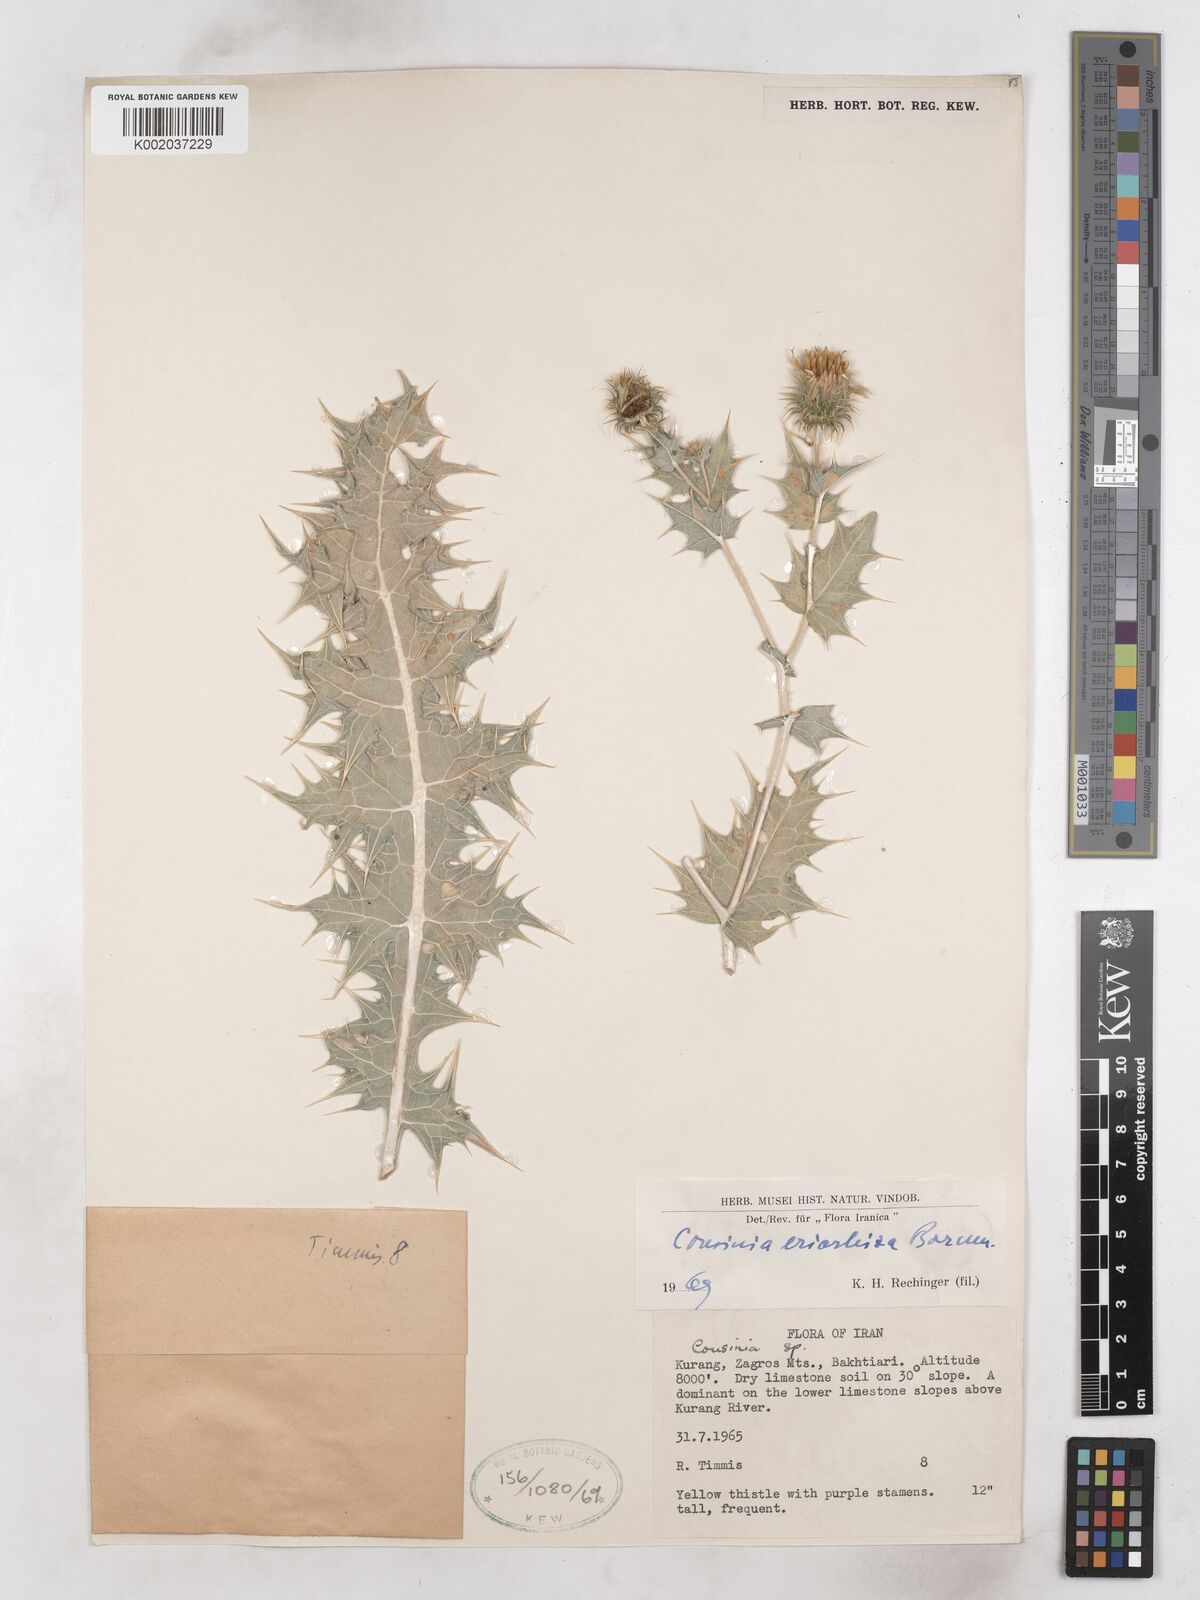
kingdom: Plantae
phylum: Tracheophyta
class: Magnoliopsida
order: Asterales
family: Asteraceae
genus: Cousinia
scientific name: Cousinia eriorrhiza
